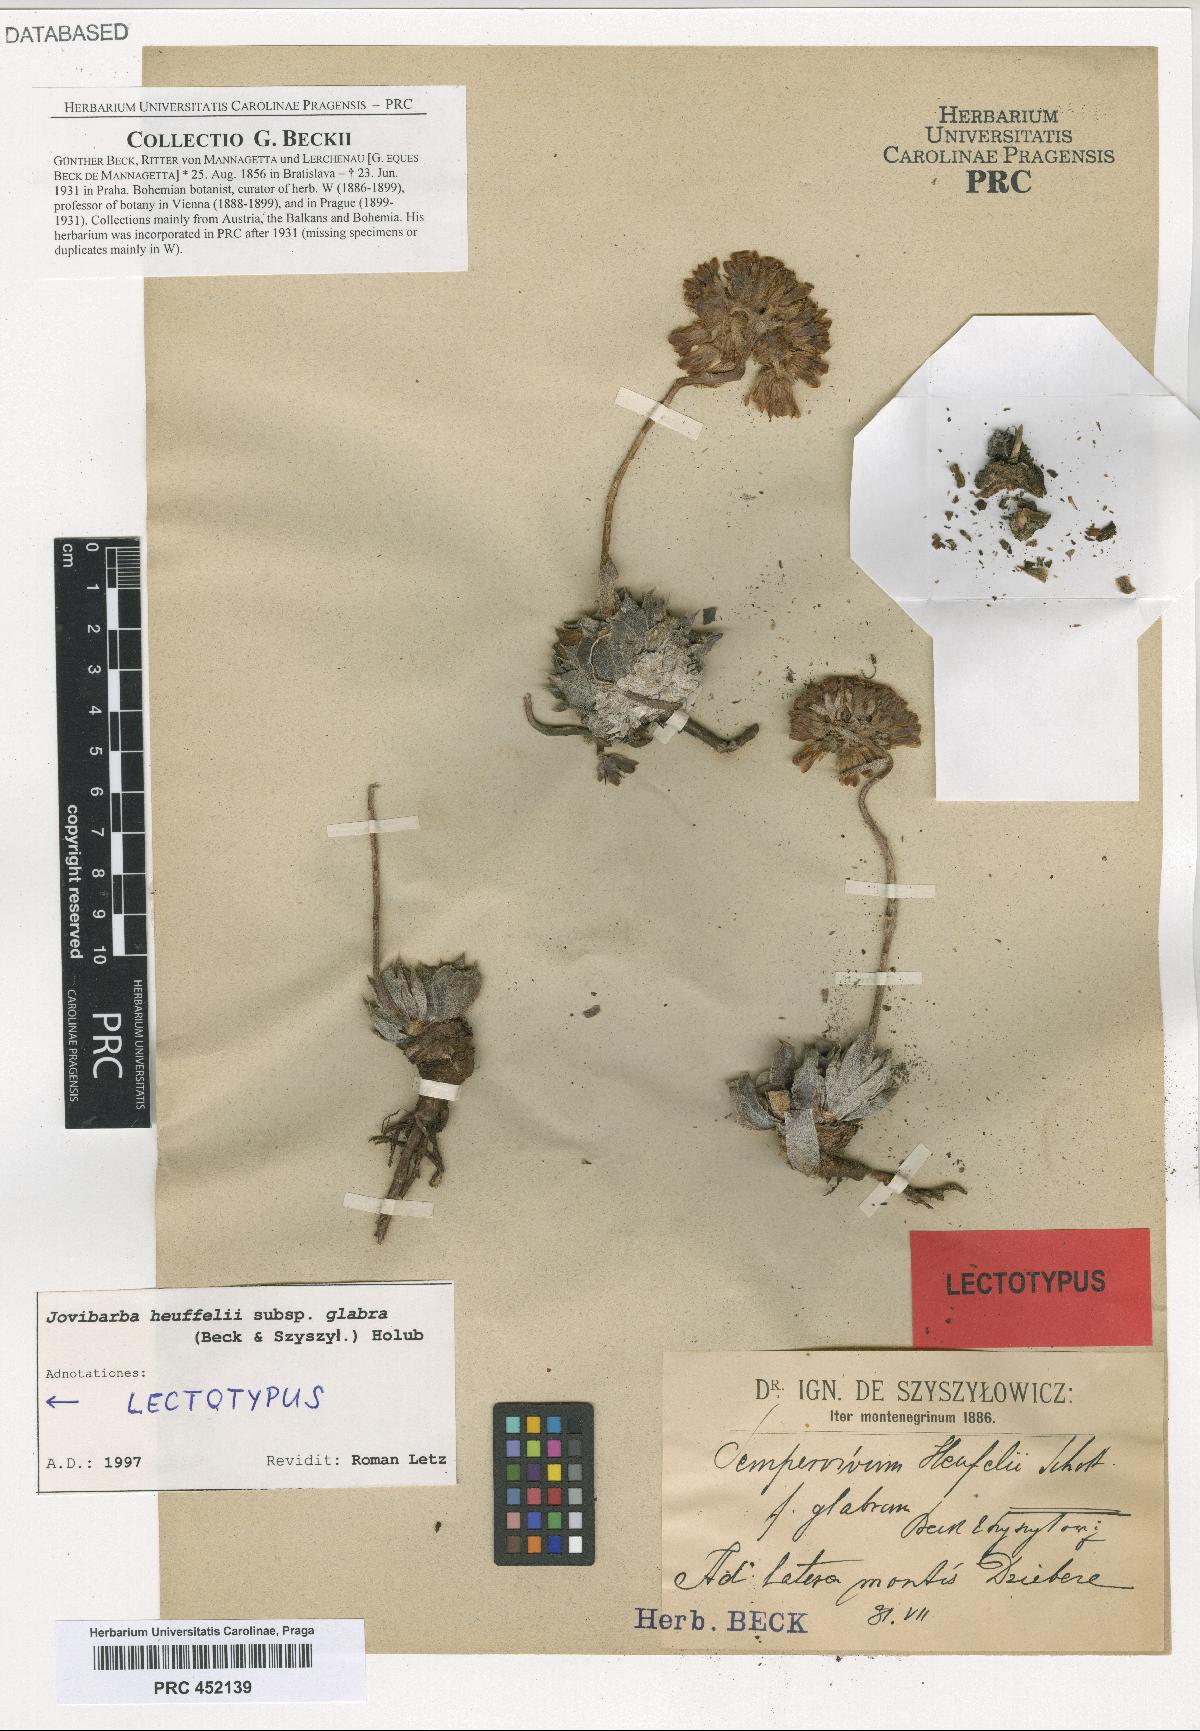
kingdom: Plantae
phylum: Tracheophyta
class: Magnoliopsida
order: Saxifragales
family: Crassulaceae
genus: Sempervivum
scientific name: Sempervivum heuffelii
